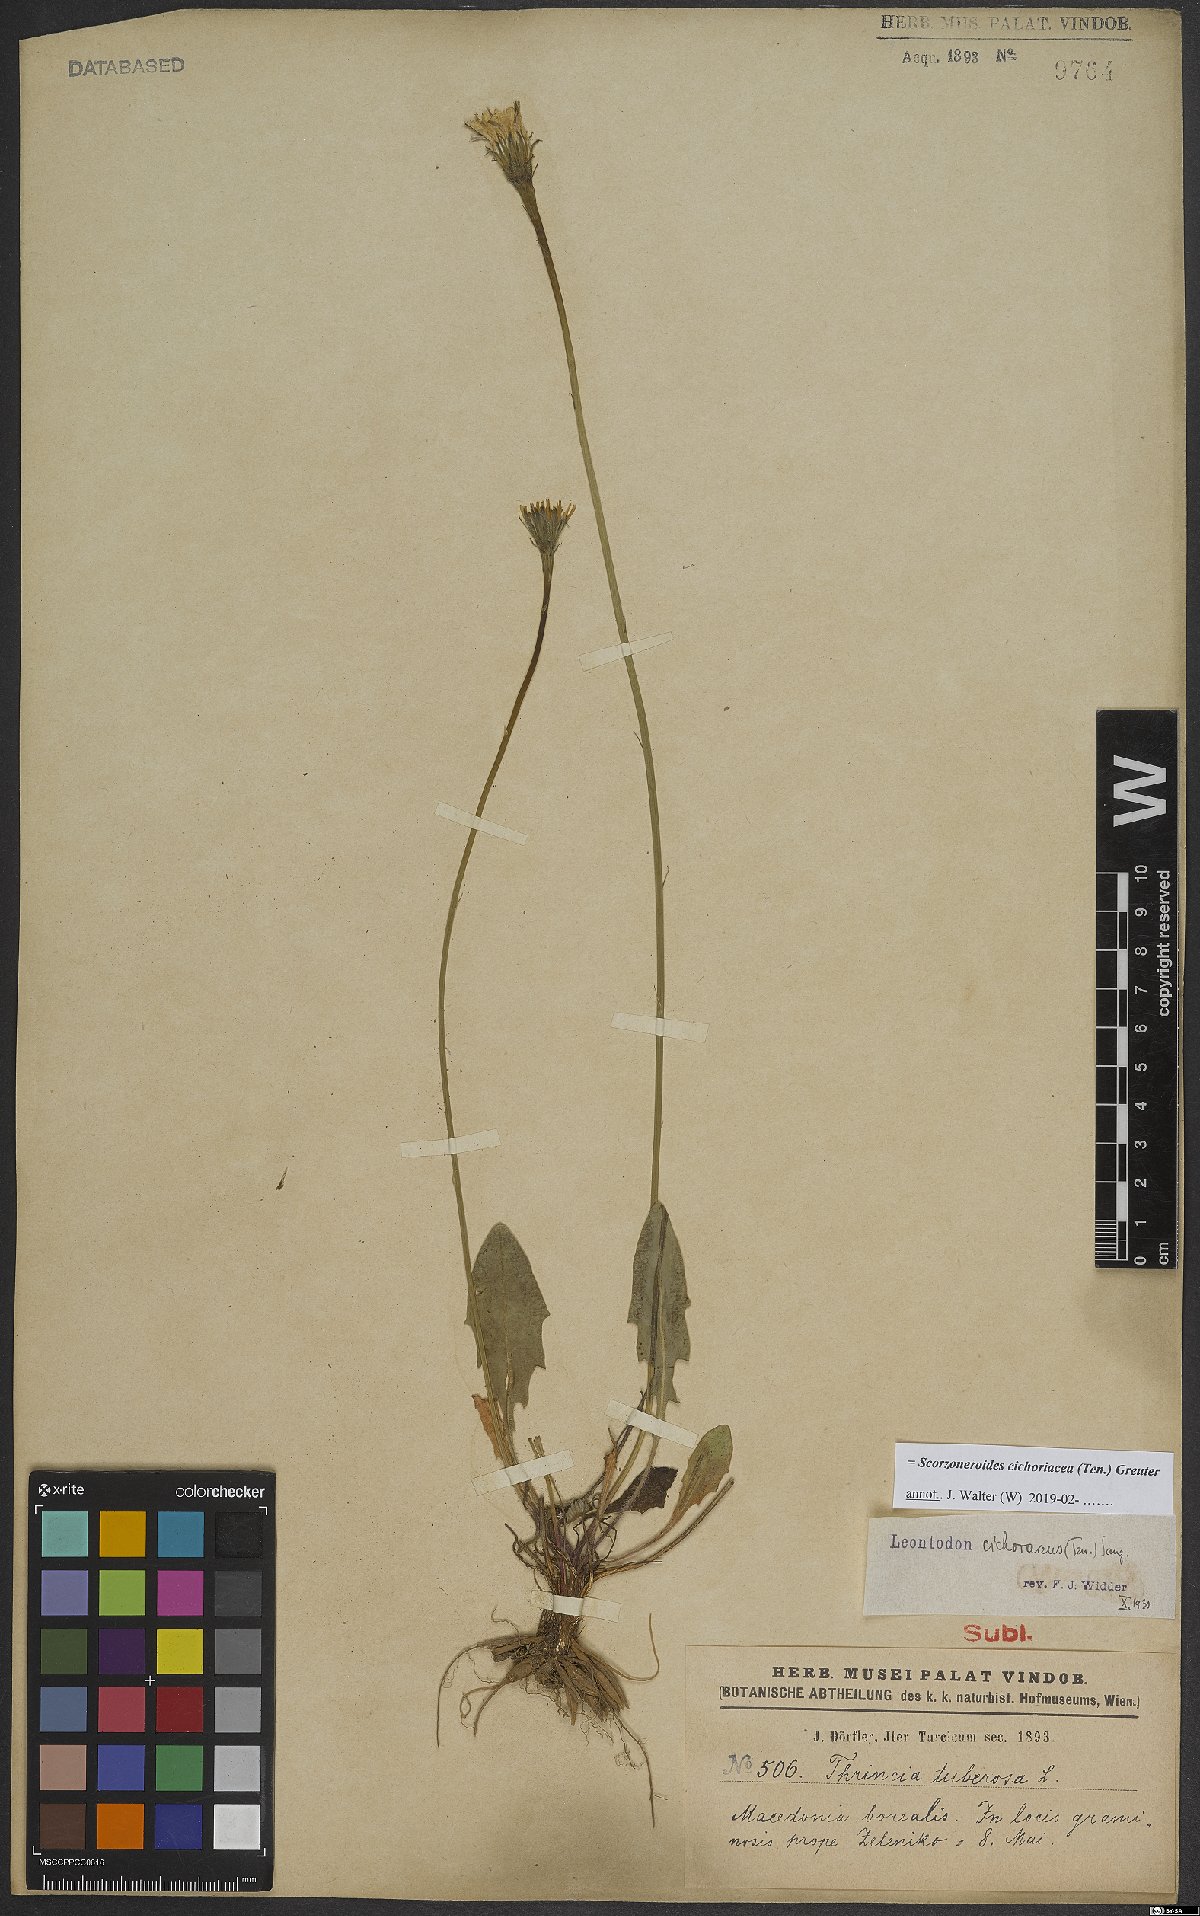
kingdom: Plantae
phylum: Tracheophyta
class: Magnoliopsida
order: Asterales
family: Asteraceae
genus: Scorzoneroides
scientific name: Scorzoneroides cichoriacea
